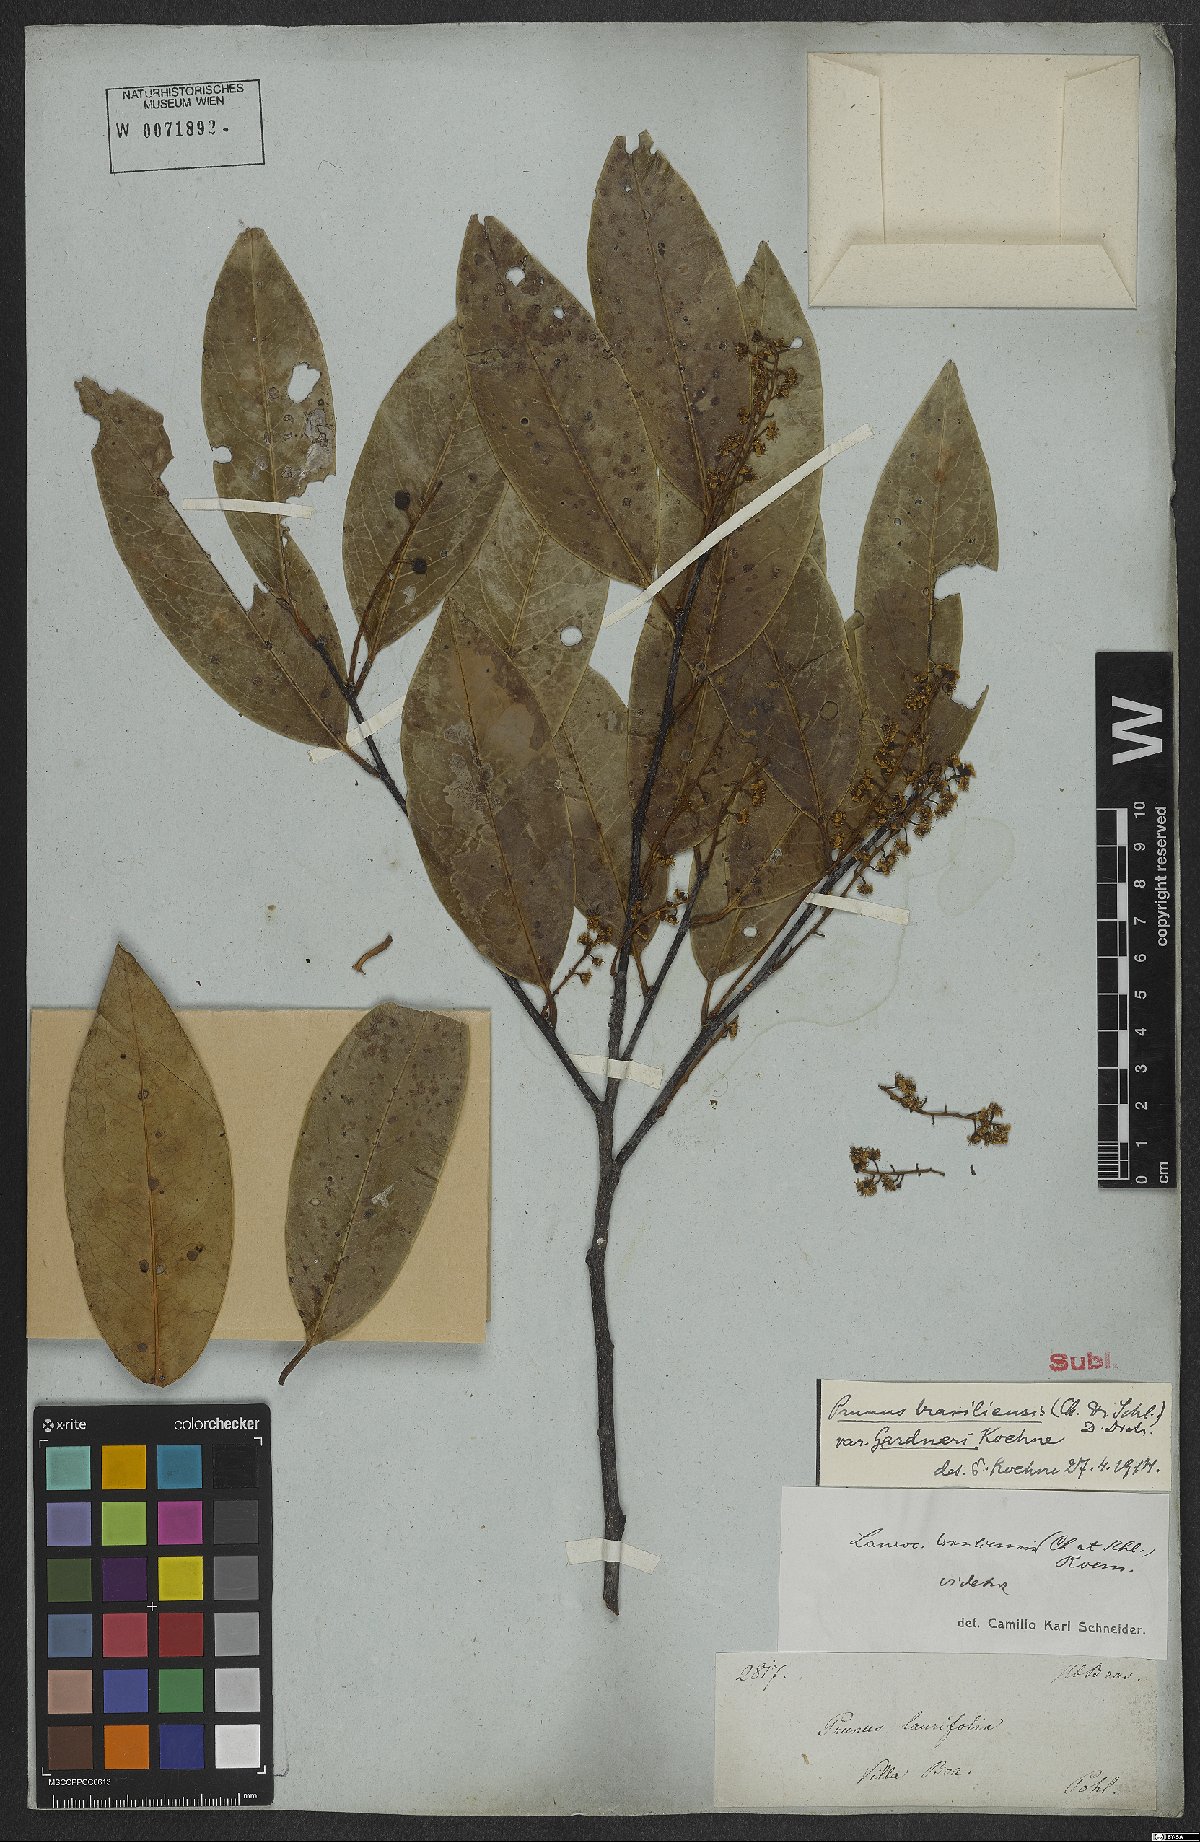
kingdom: Plantae
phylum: Tracheophyta
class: Magnoliopsida
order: Rosales
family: Rosaceae
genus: Prunus
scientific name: Prunus brasiliensis
